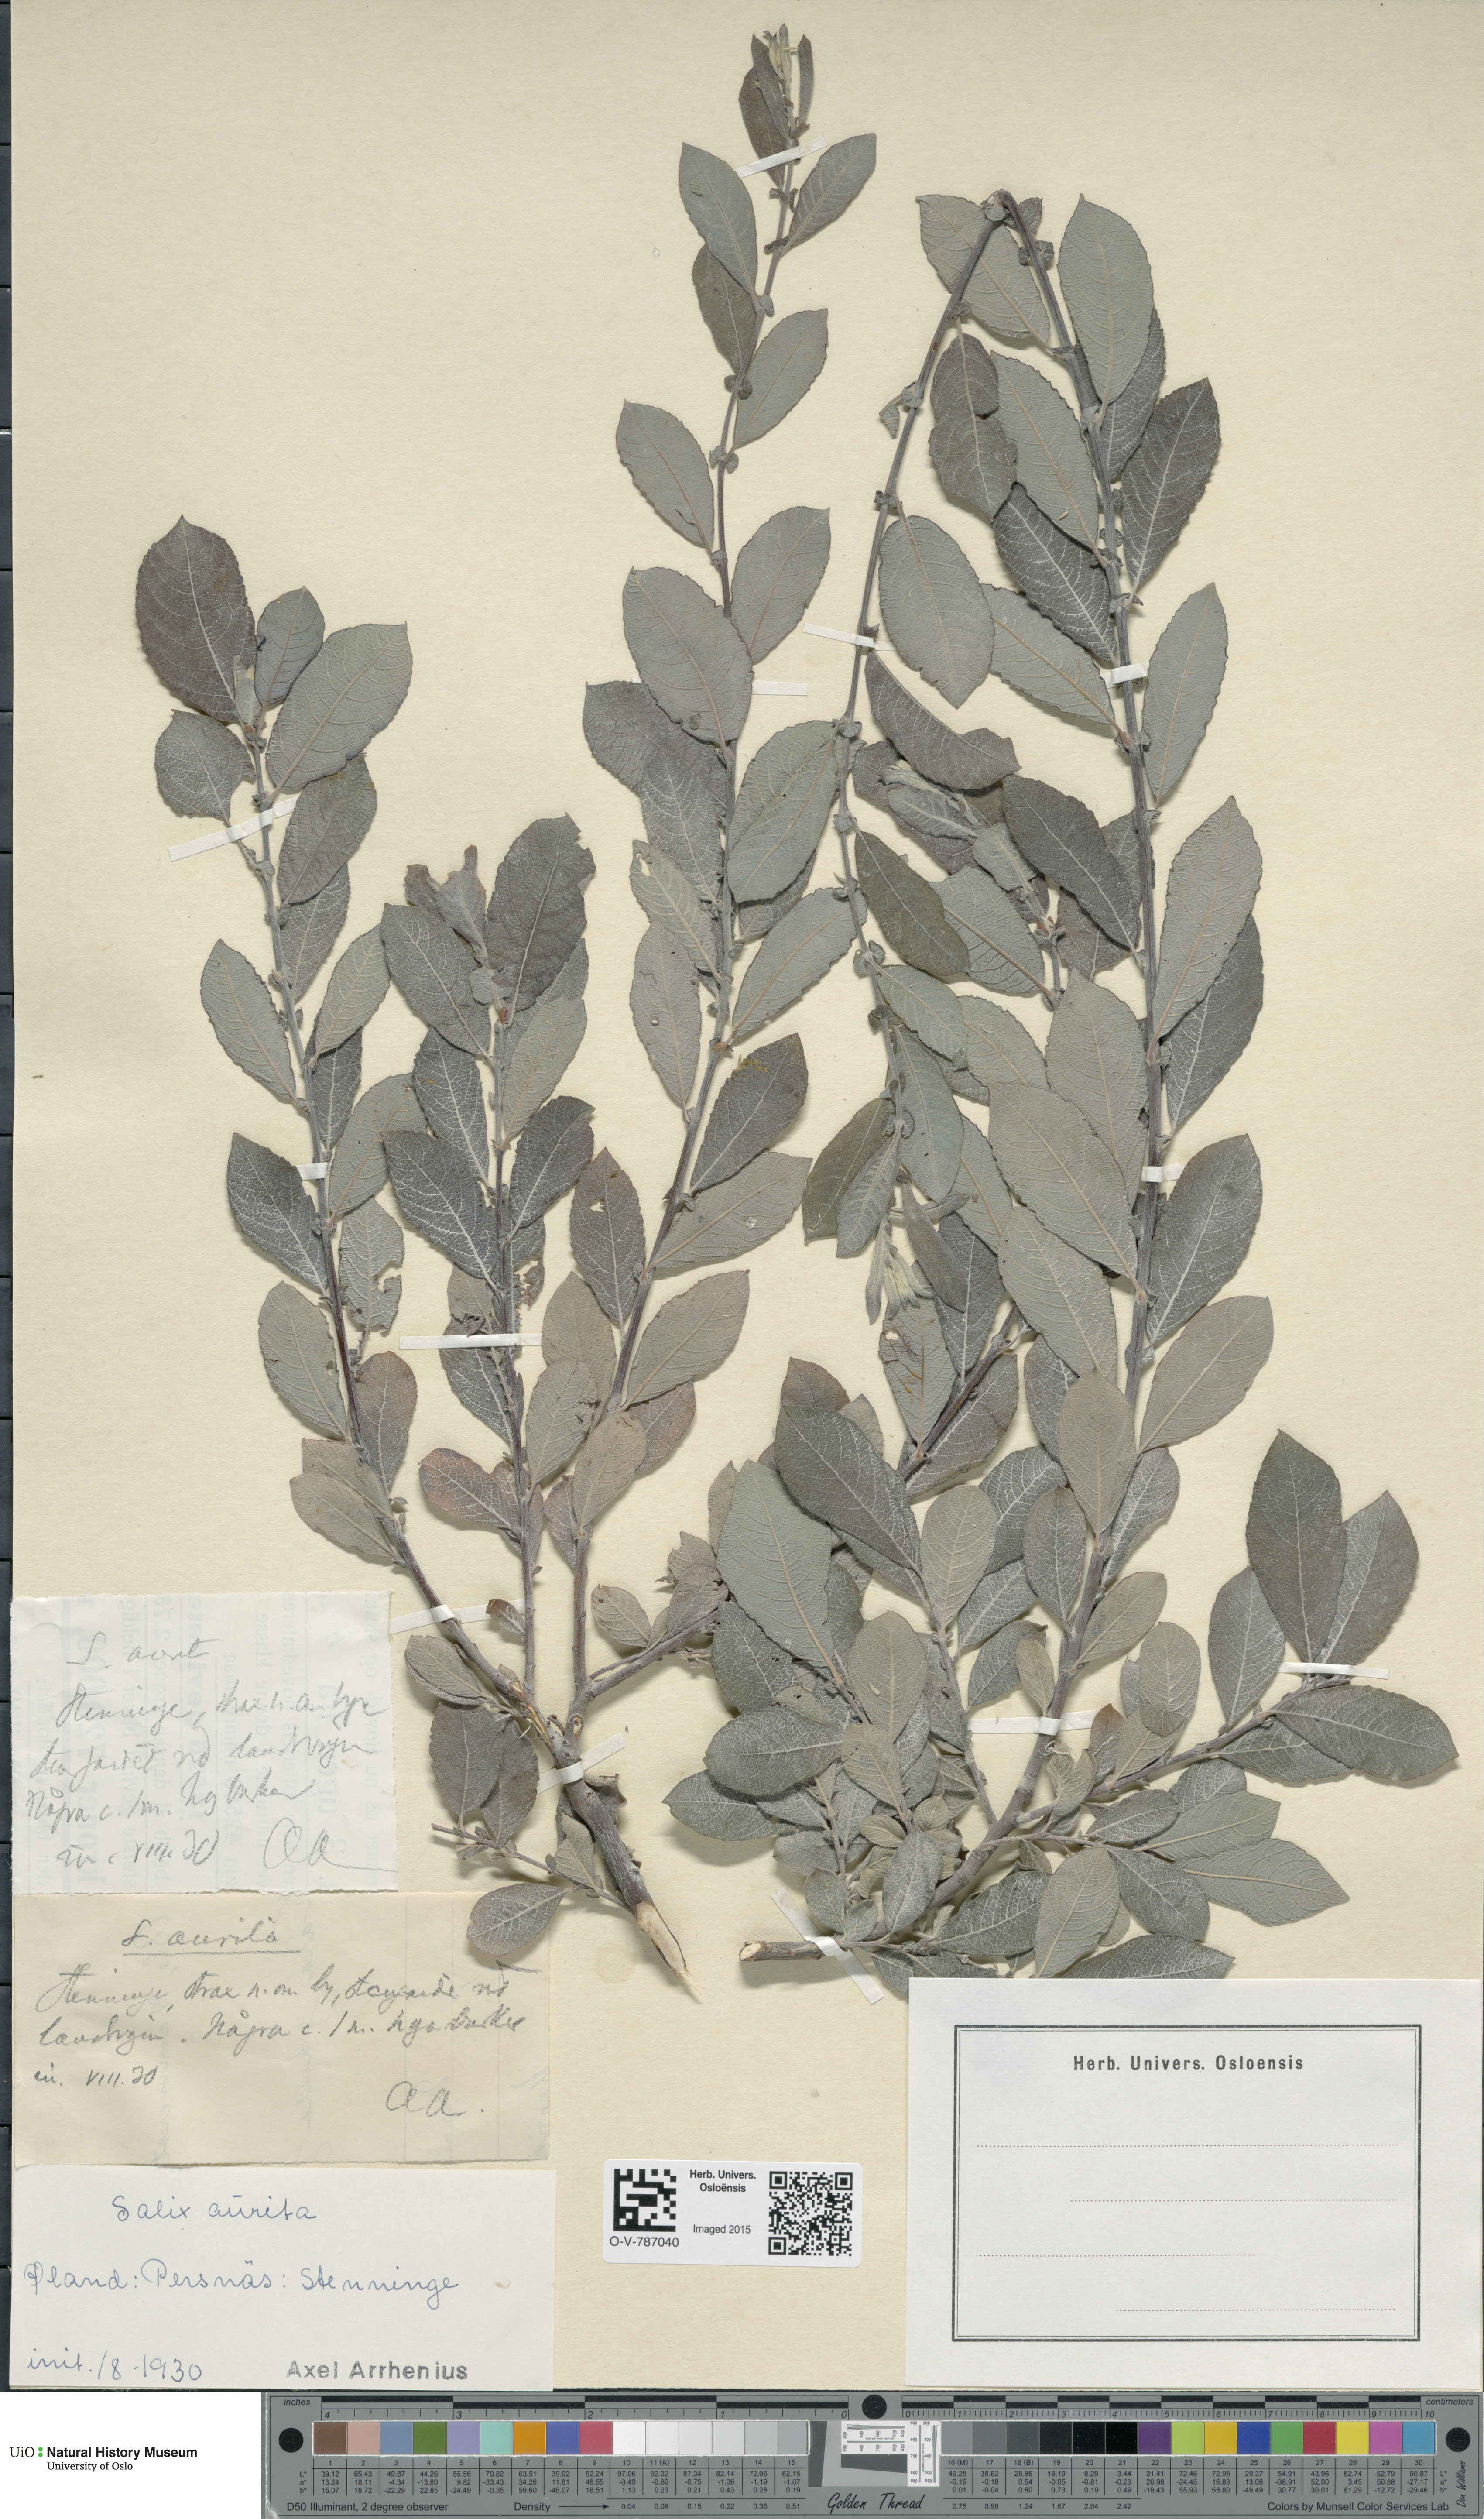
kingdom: Plantae
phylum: Tracheophyta
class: Magnoliopsida
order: Malpighiales
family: Salicaceae
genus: Salix
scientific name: Salix aurita
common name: Eared willow
